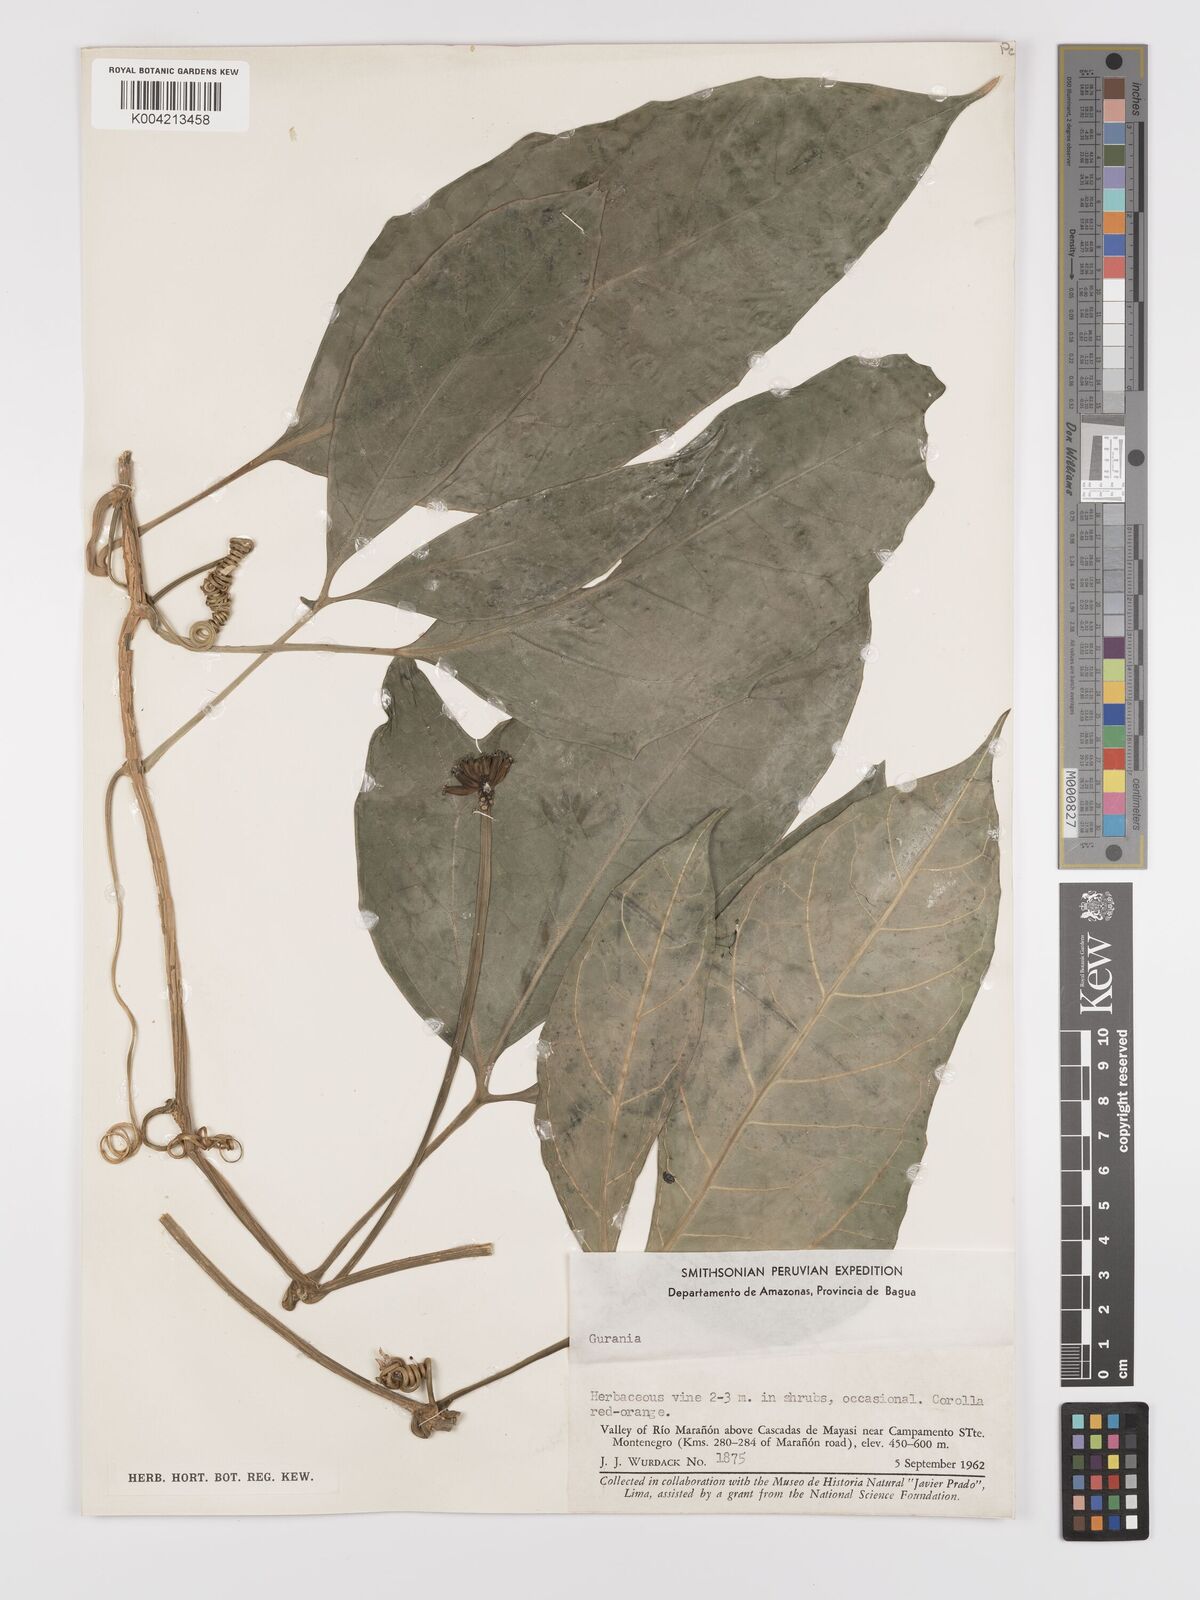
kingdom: Plantae
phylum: Tracheophyta
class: Magnoliopsida
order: Cucurbitales
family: Cucurbitaceae
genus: Psiguria
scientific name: Psiguria triphylla
